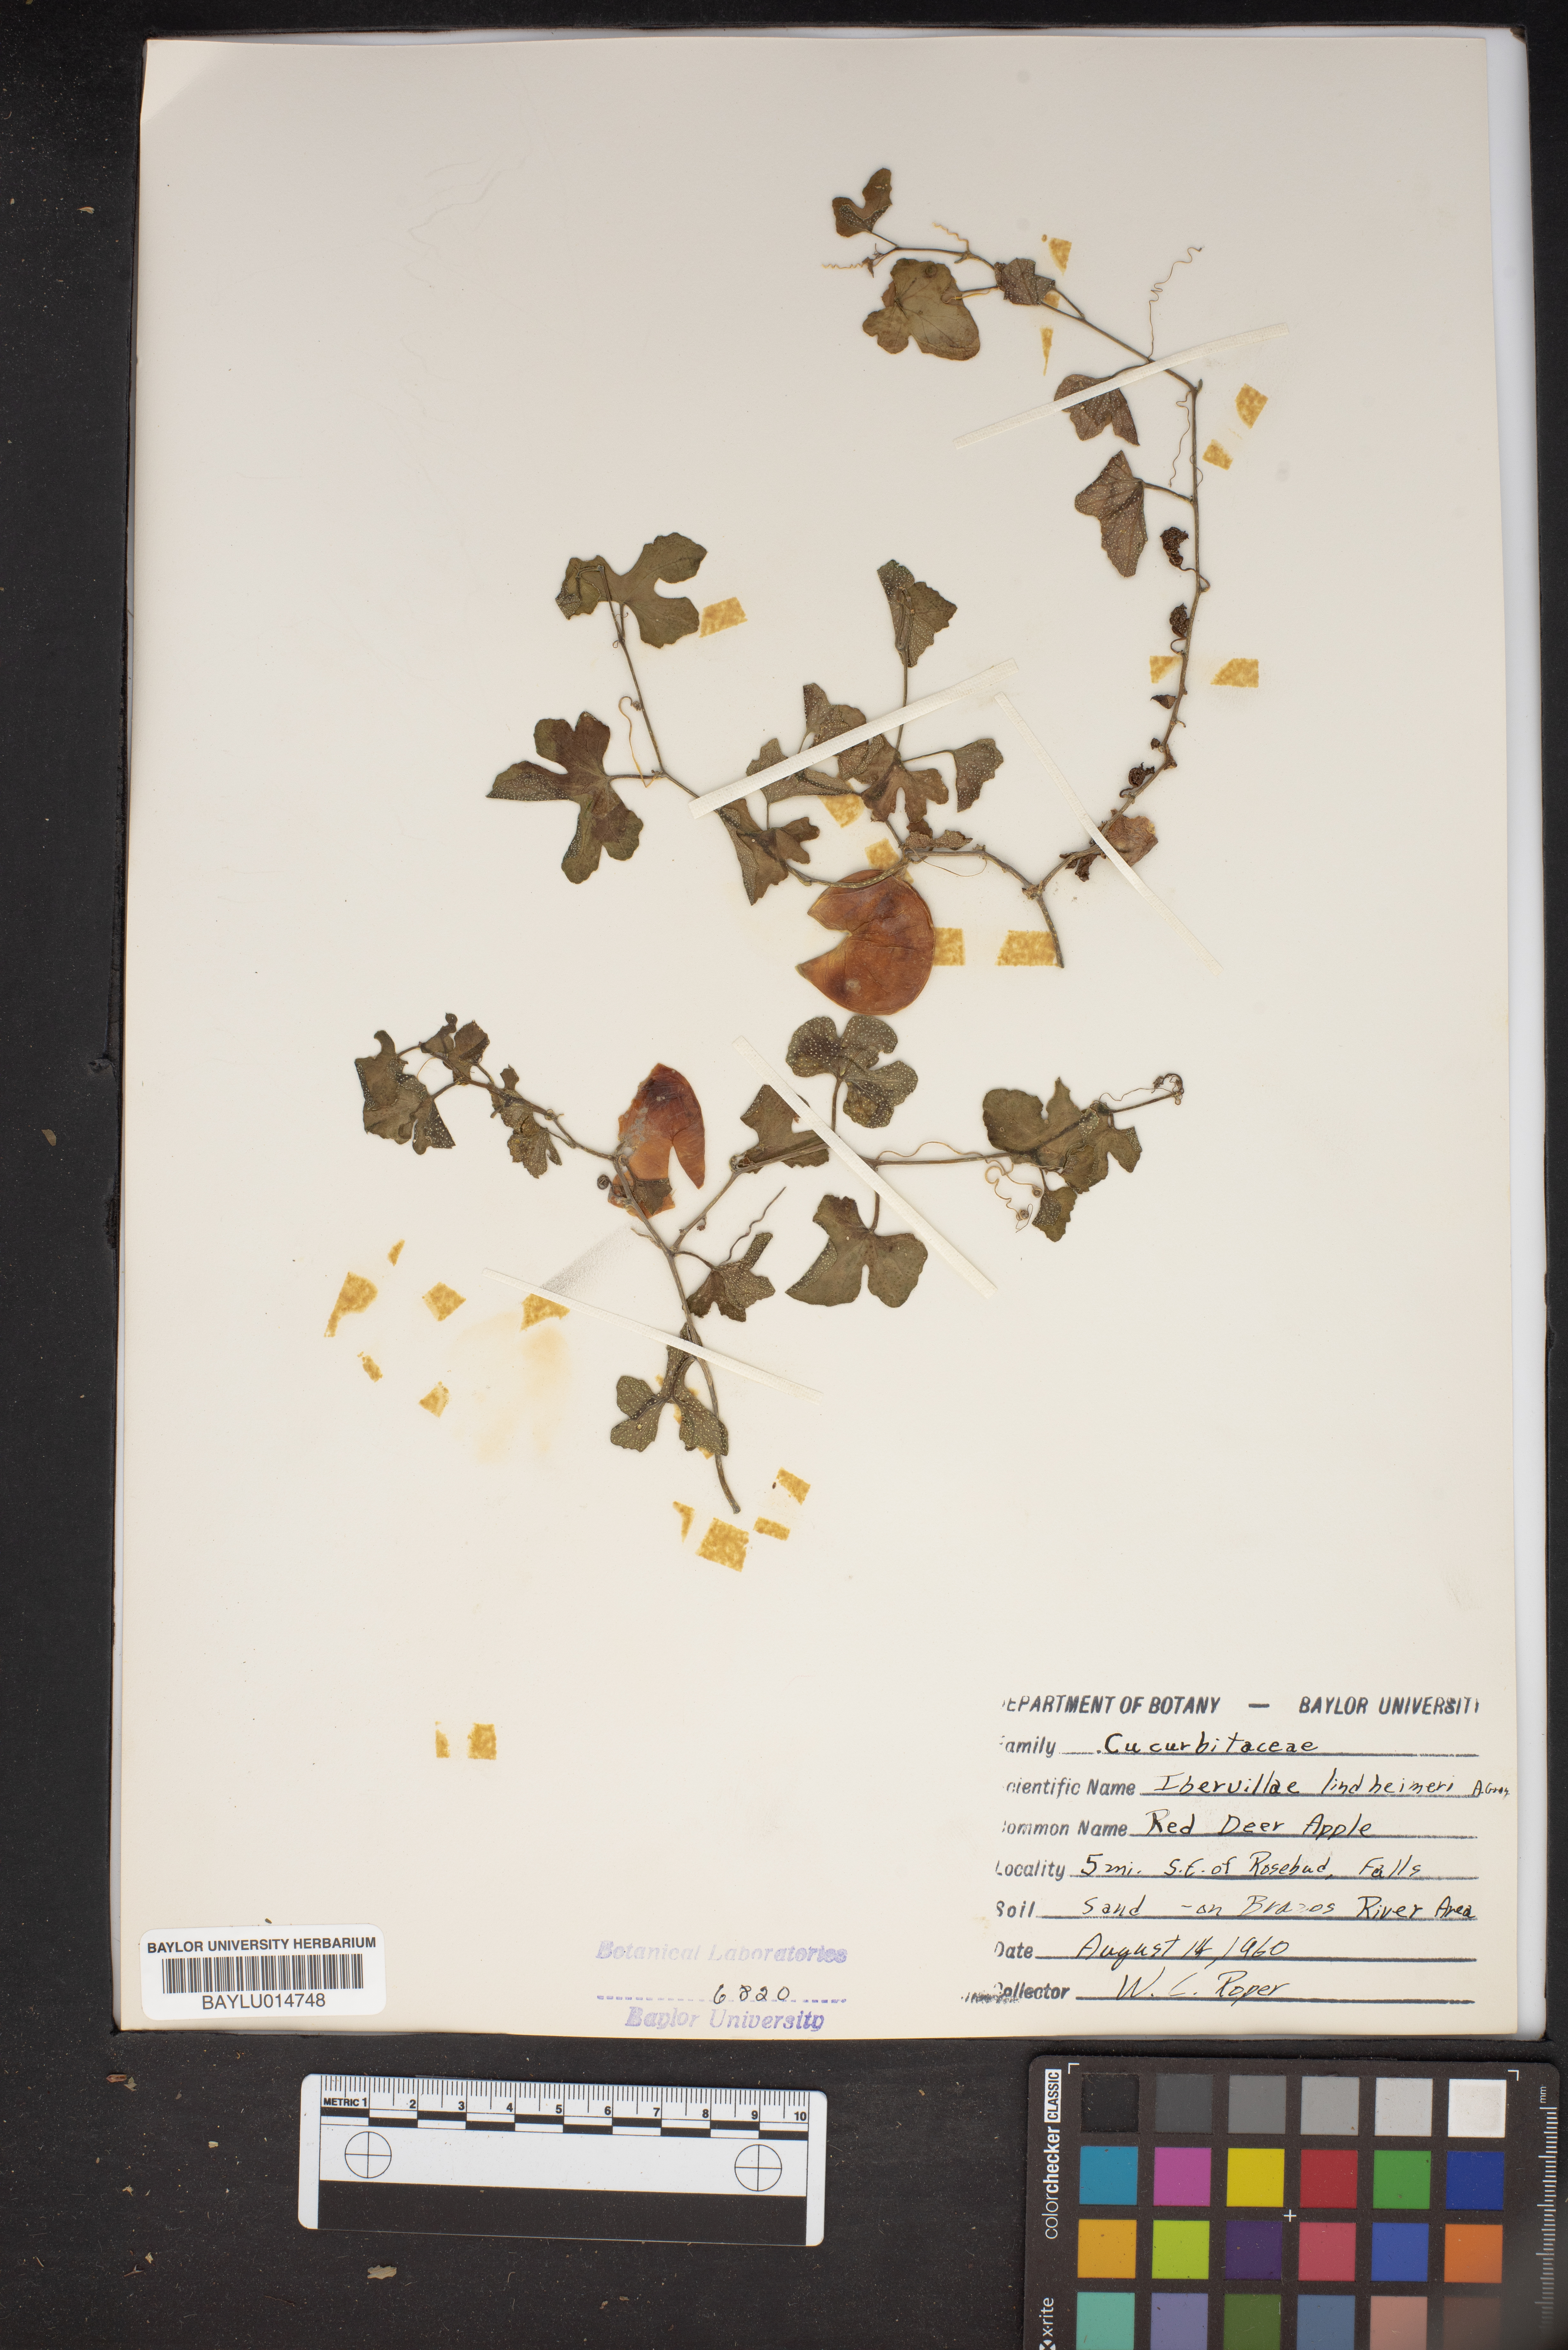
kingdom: Plantae
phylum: Tracheophyta
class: Magnoliopsida
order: Cucurbitales
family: Cucurbitaceae
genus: Ibervillea
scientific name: Ibervillea lindheimeri
